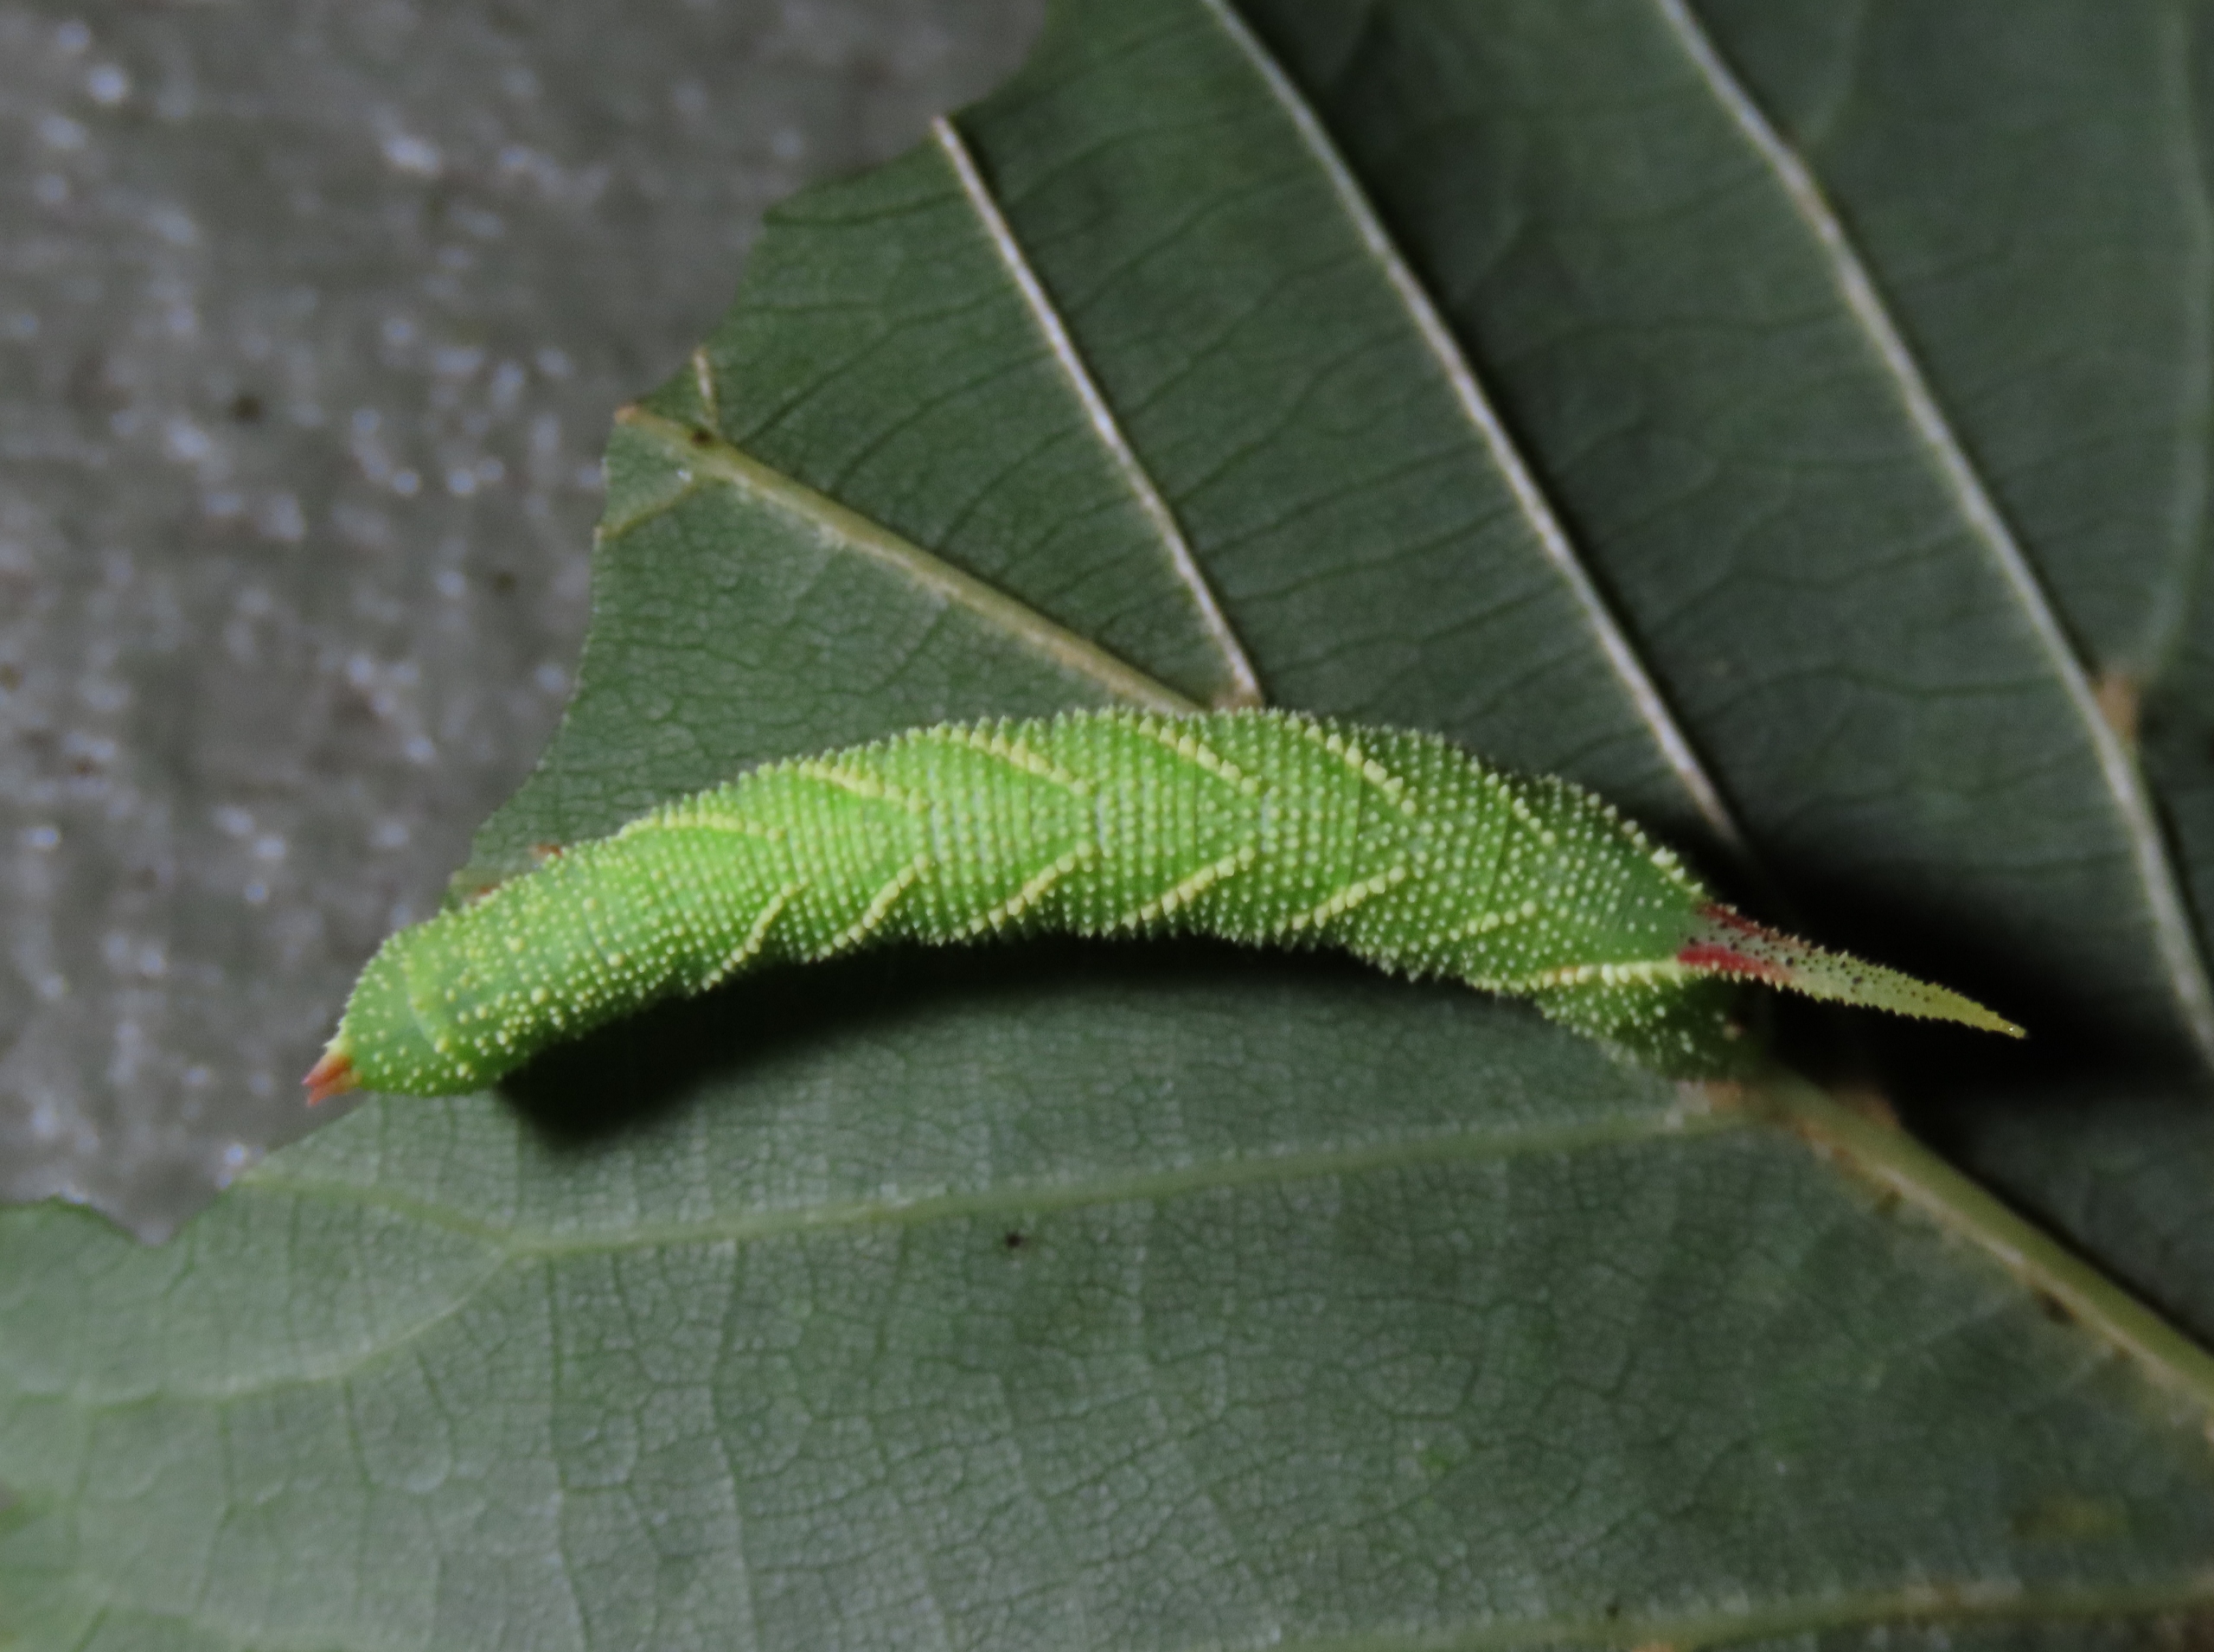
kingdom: Animalia
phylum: Arthropoda
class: Insecta
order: Lepidoptera
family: Sphingidae
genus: Mimas
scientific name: Mimas tiliae
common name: Lindesværmer
